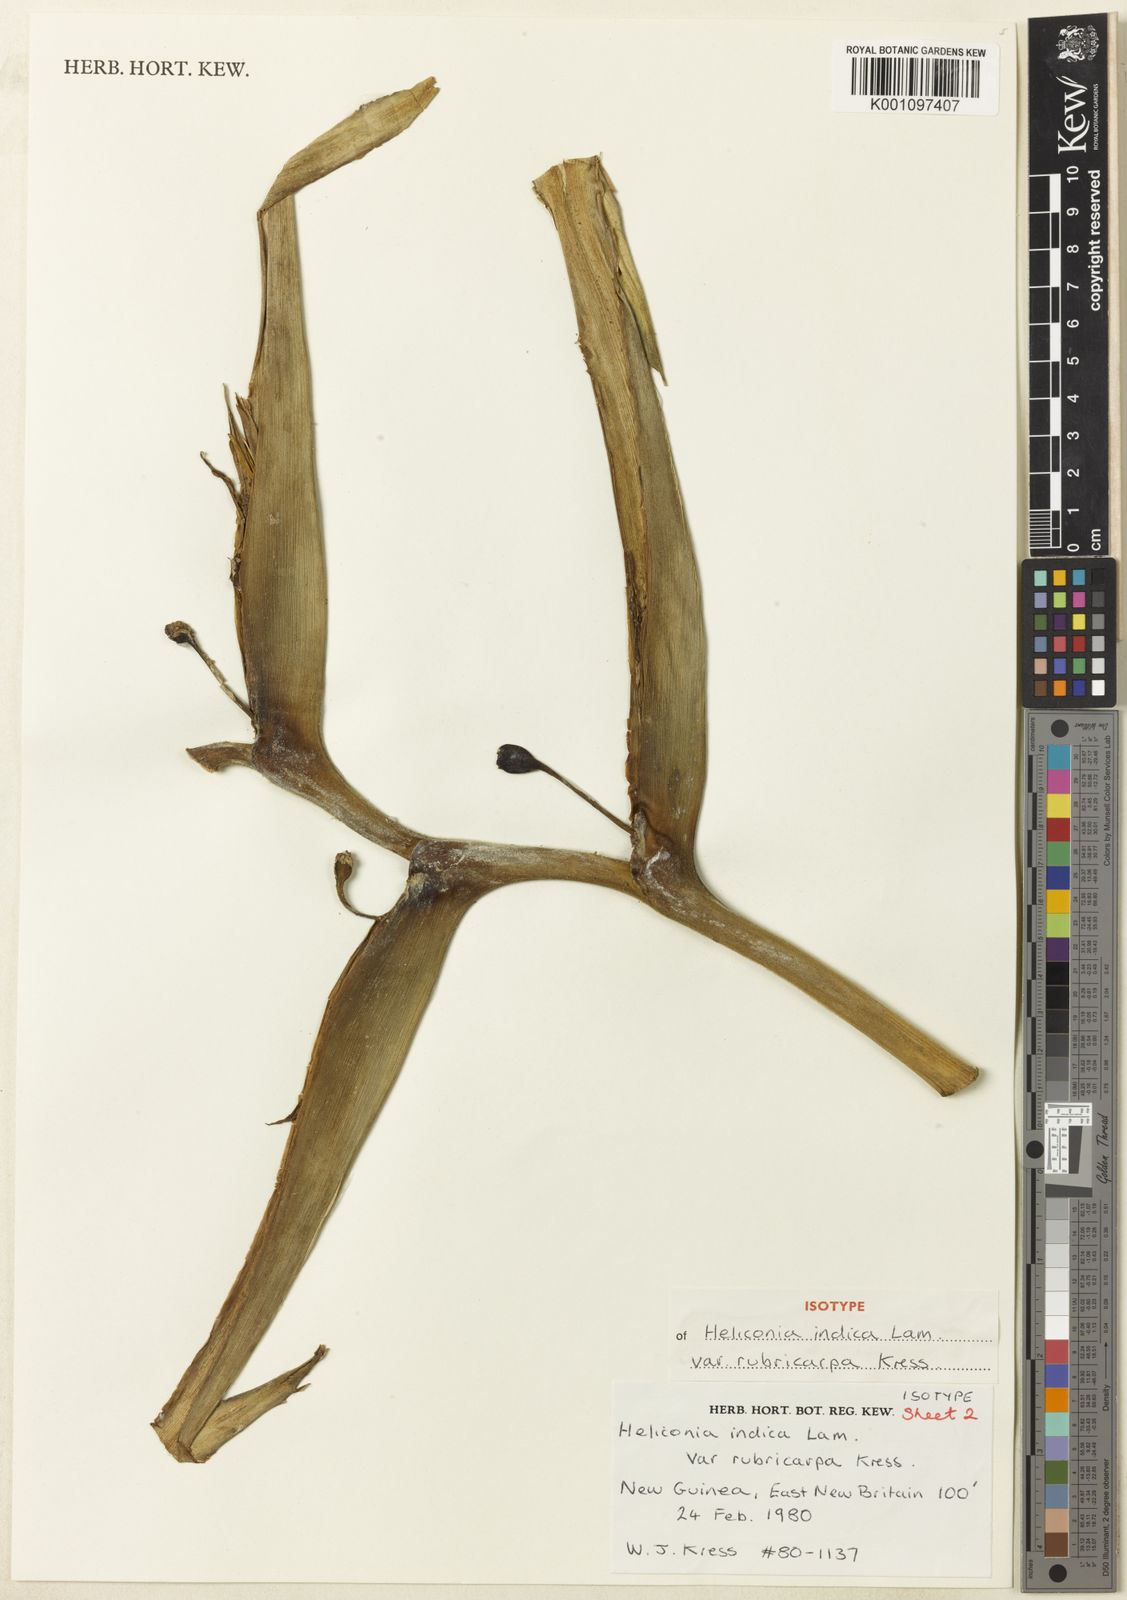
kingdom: Plantae
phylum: Tracheophyta
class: Liliopsida
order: Zingiberales
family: Heliconiaceae
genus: Heliconia
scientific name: Heliconia indica
